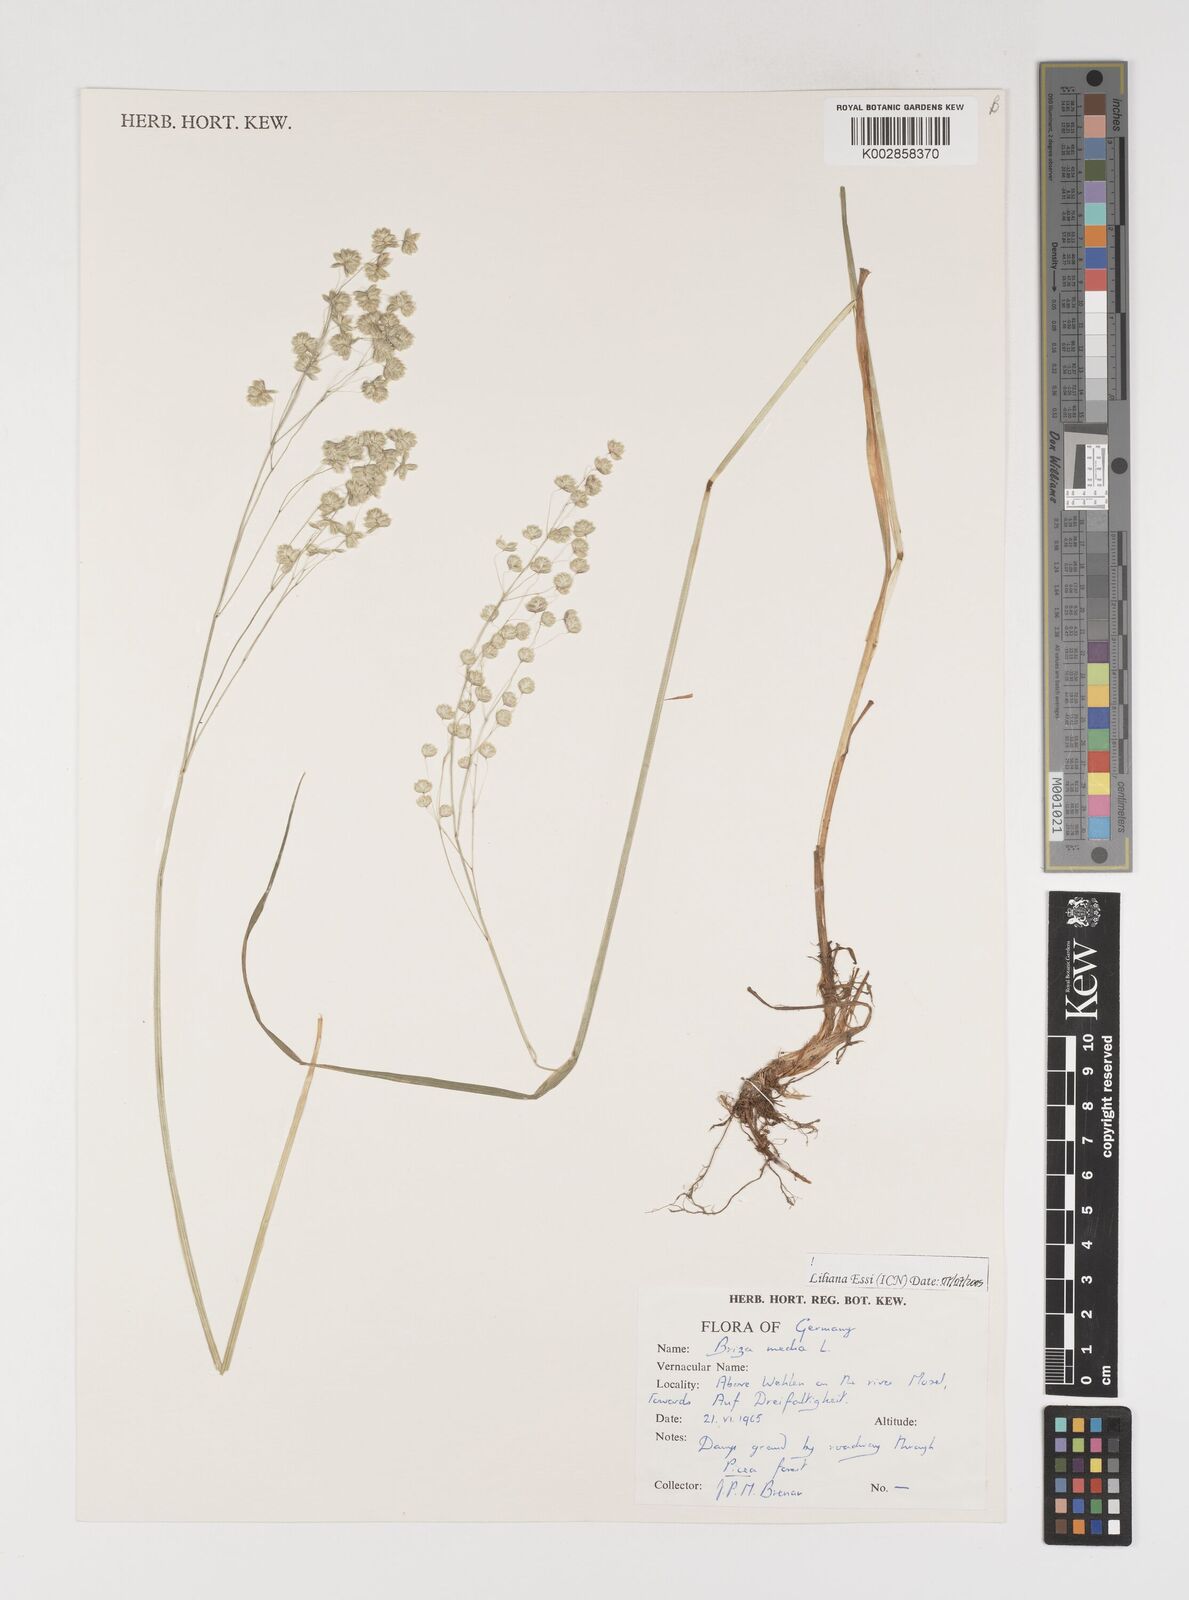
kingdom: Plantae
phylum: Tracheophyta
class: Liliopsida
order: Poales
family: Poaceae
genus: Briza
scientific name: Briza media
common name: Quaking grass
